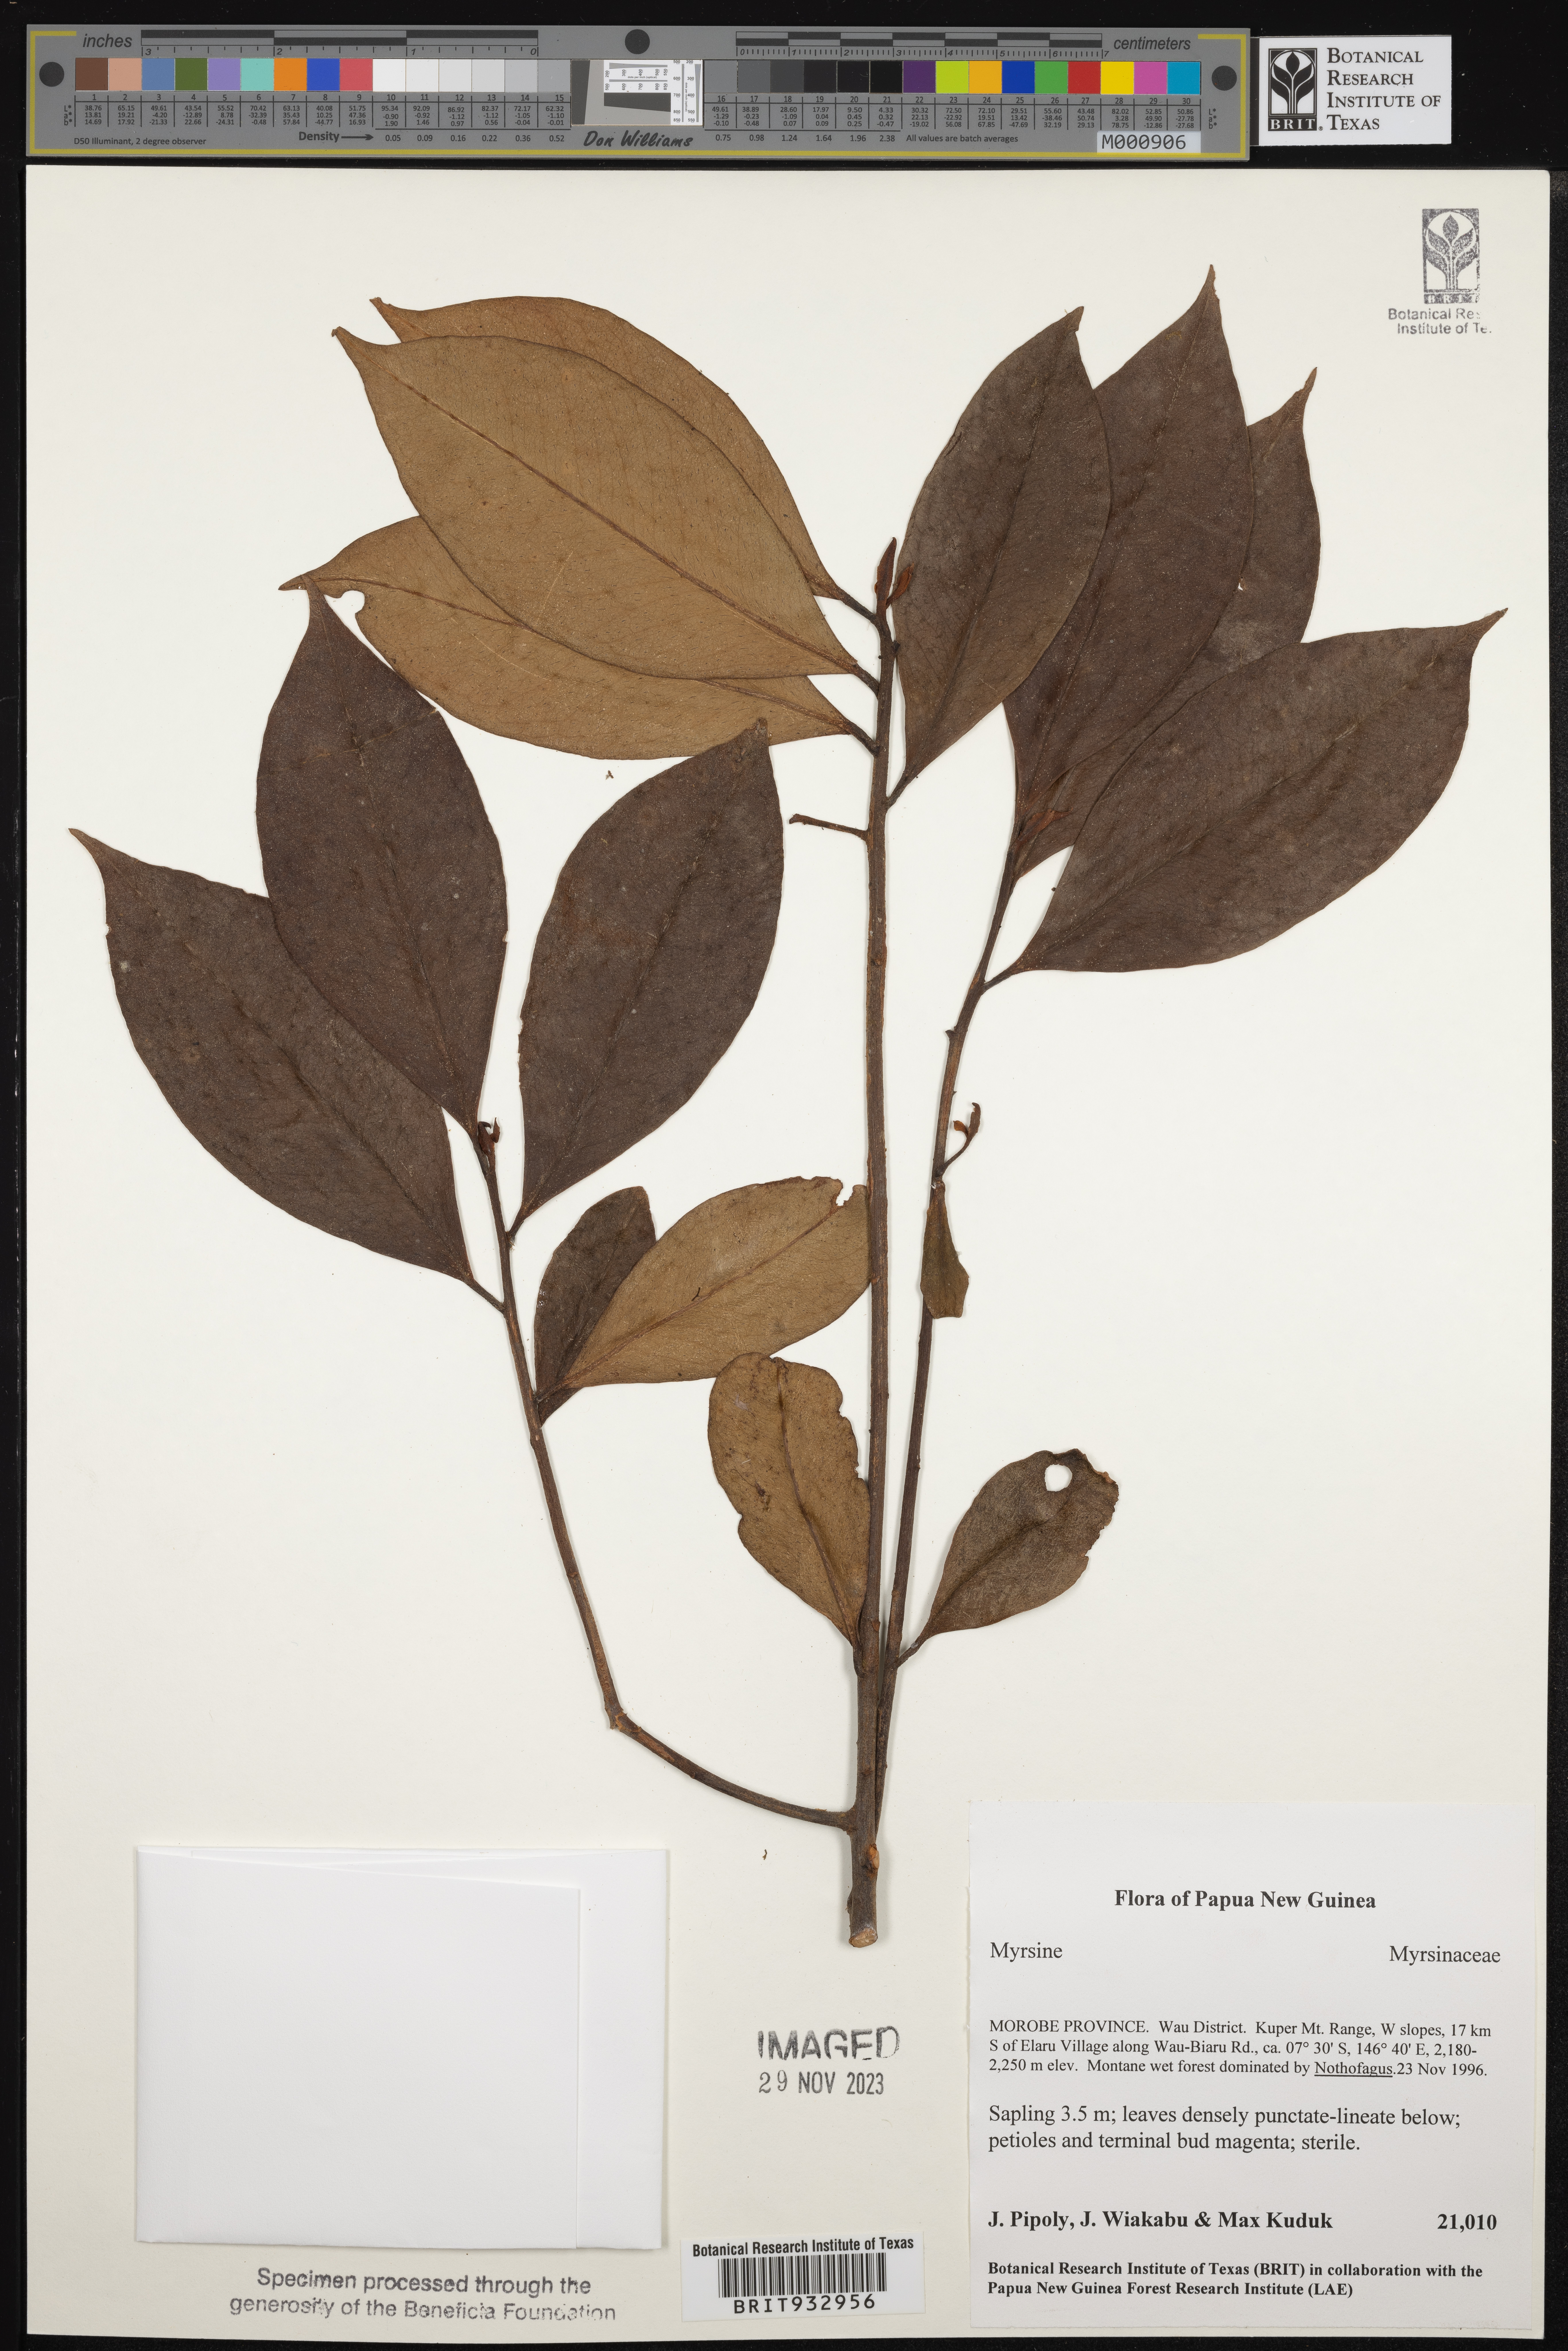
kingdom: Plantae
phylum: Tracheophyta
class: Magnoliopsida
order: Ericales
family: Primulaceae
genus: Myrsine
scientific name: Myrsine
